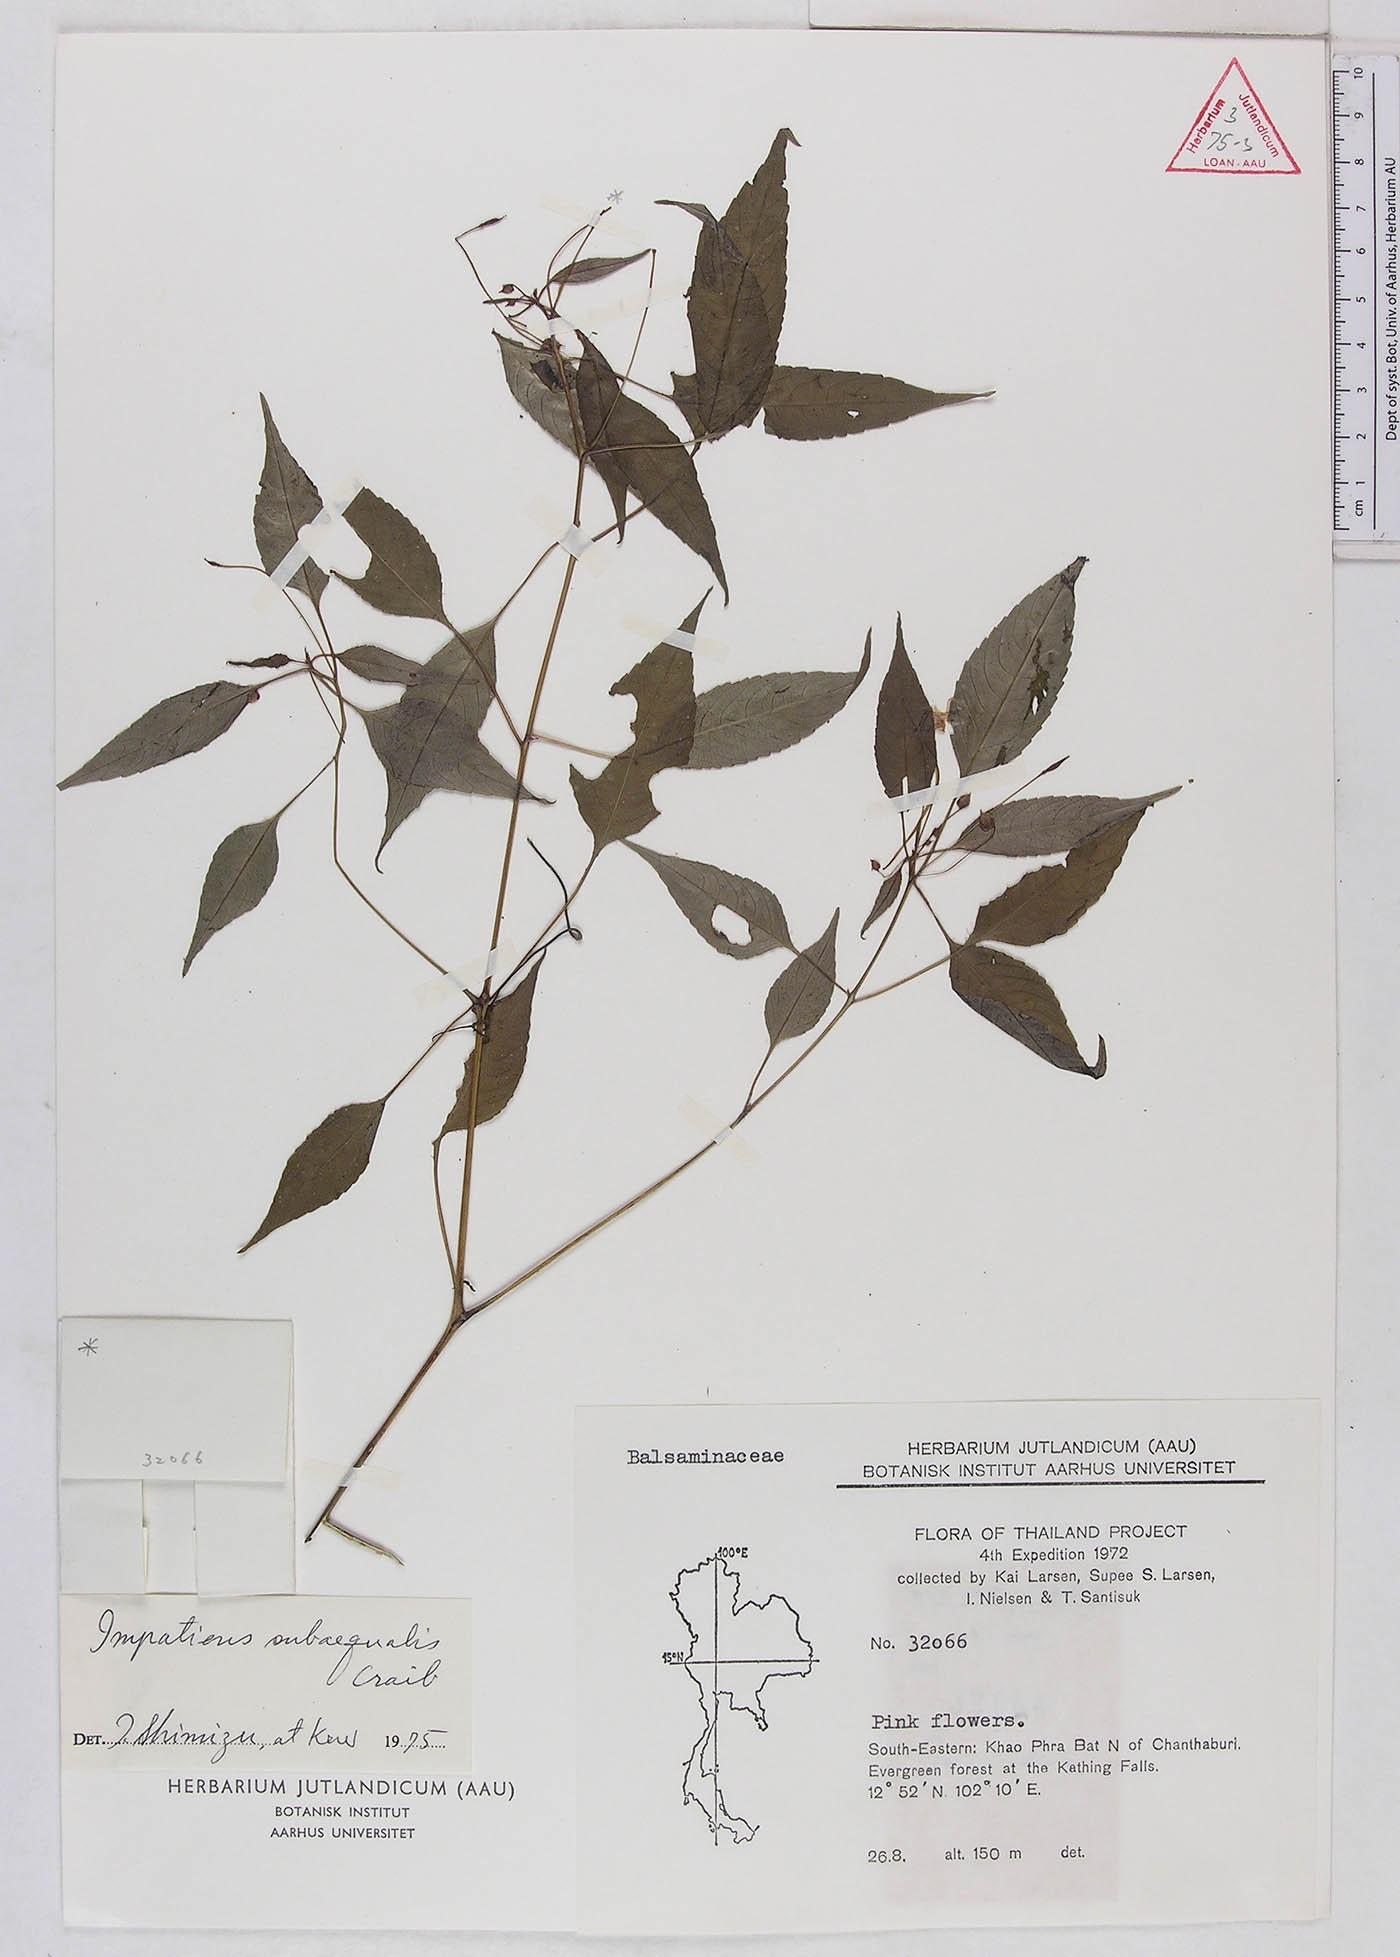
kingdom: Plantae
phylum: Tracheophyta
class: Magnoliopsida
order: Ericales
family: Balsaminaceae
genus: Impatiens
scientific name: Impatiens subaequalis
